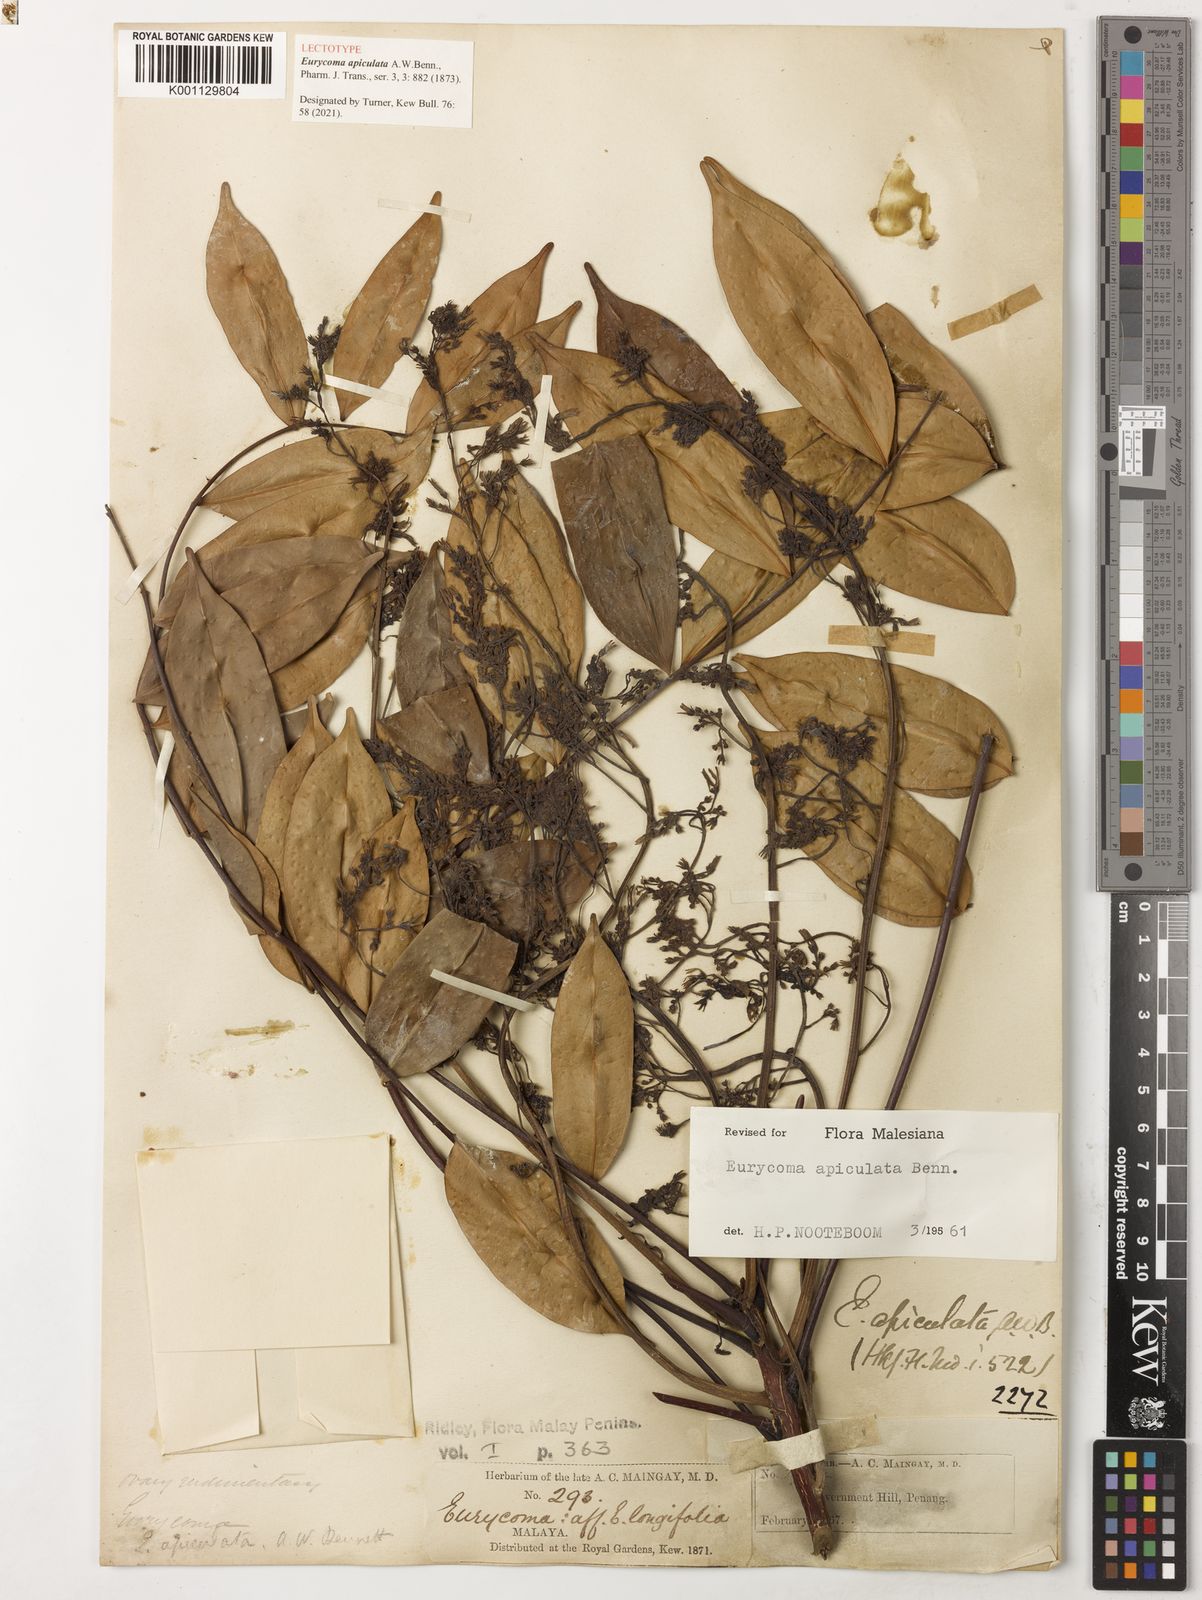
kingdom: Plantae
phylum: Tracheophyta
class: Magnoliopsida
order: Sapindales
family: Simaroubaceae
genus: Eurycoma
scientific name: Eurycoma apiculata
